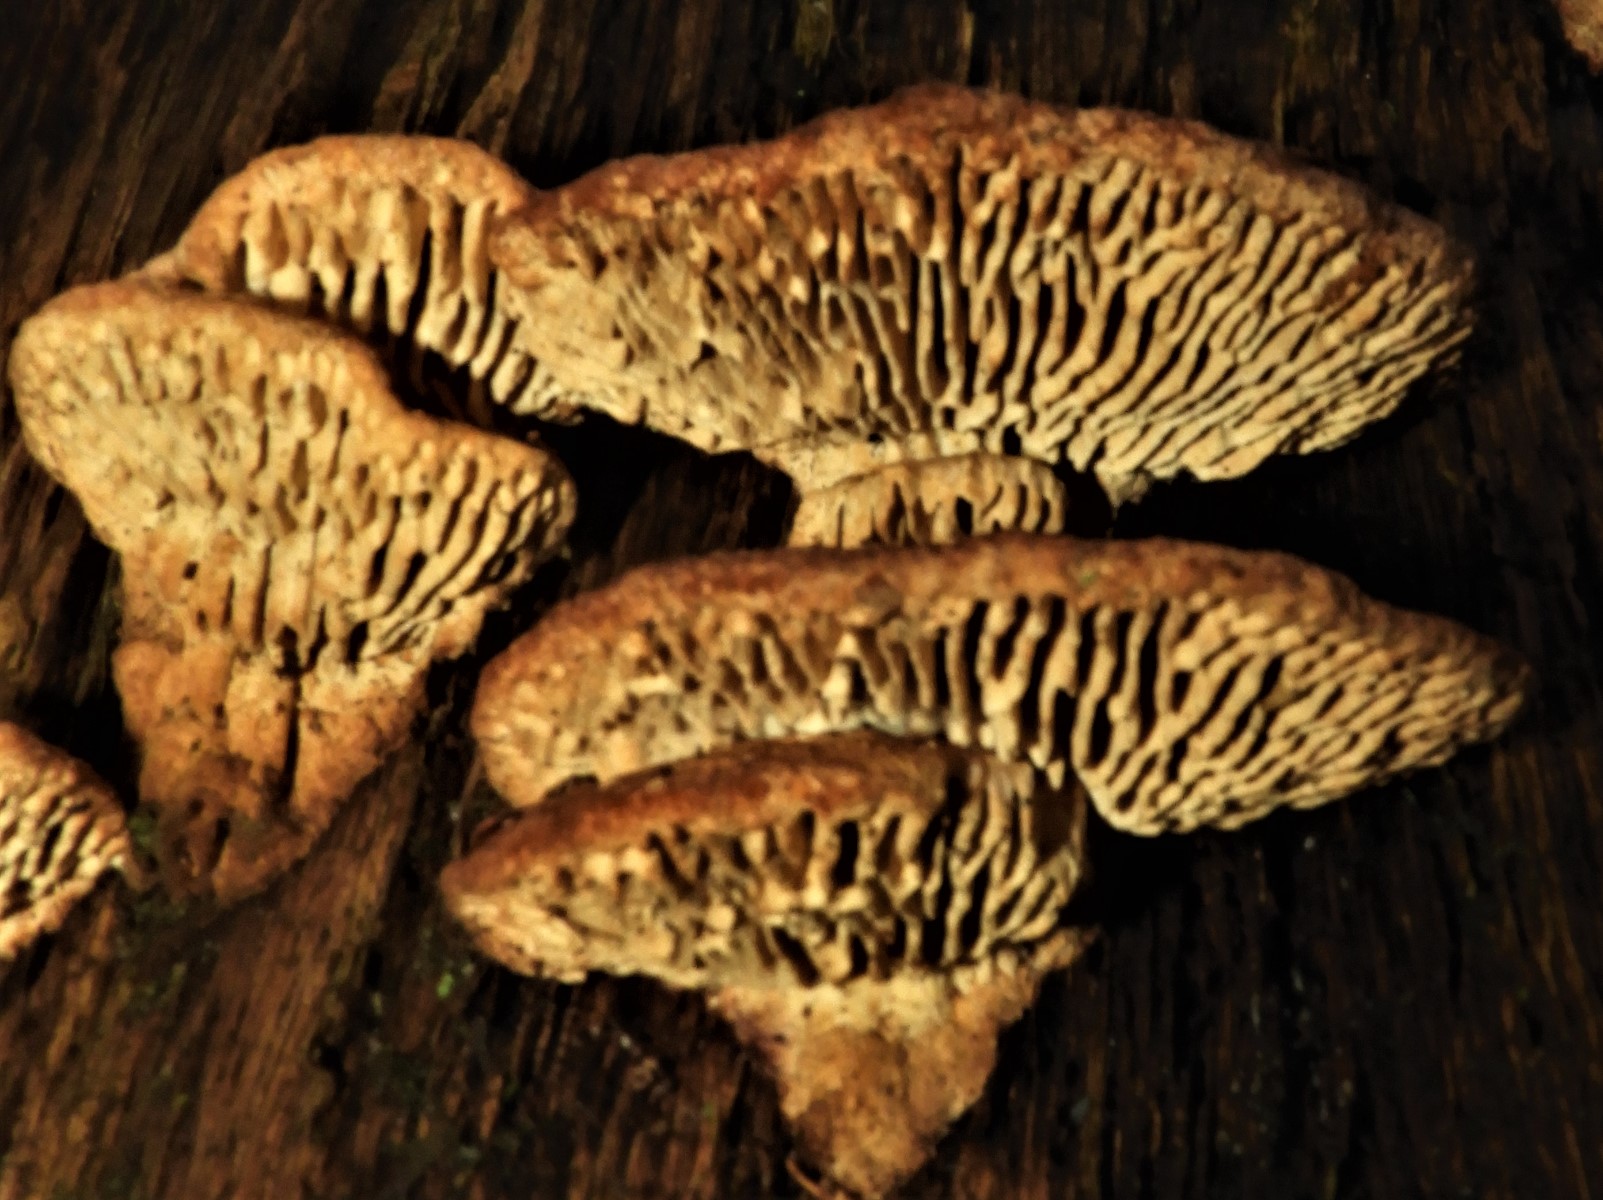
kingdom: Fungi
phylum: Basidiomycota
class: Agaricomycetes
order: Polyporales
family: Fomitopsidaceae
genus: Daedalea
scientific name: Daedalea quercina
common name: ege-labyrintsvamp
